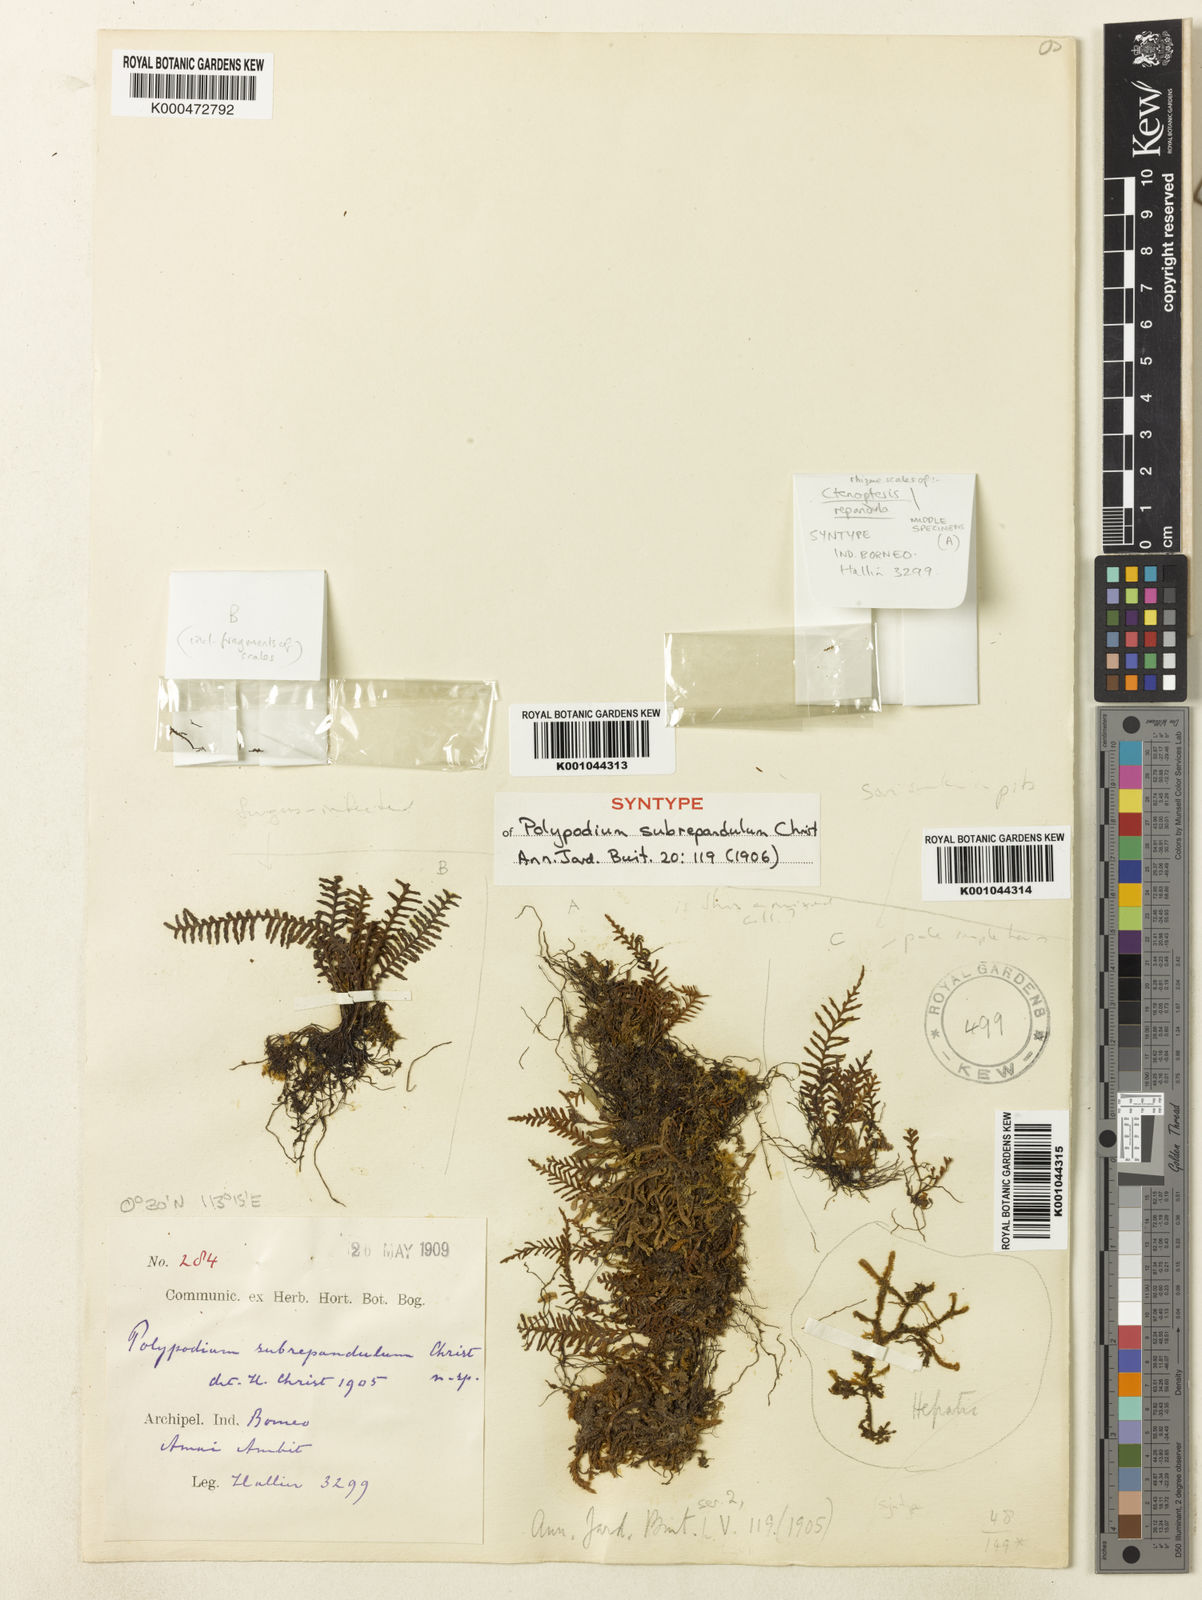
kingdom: Plantae
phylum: Tracheophyta
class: Polypodiopsida
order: Polypodiales
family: Polypodiaceae
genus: Grammitis
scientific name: Grammitis
